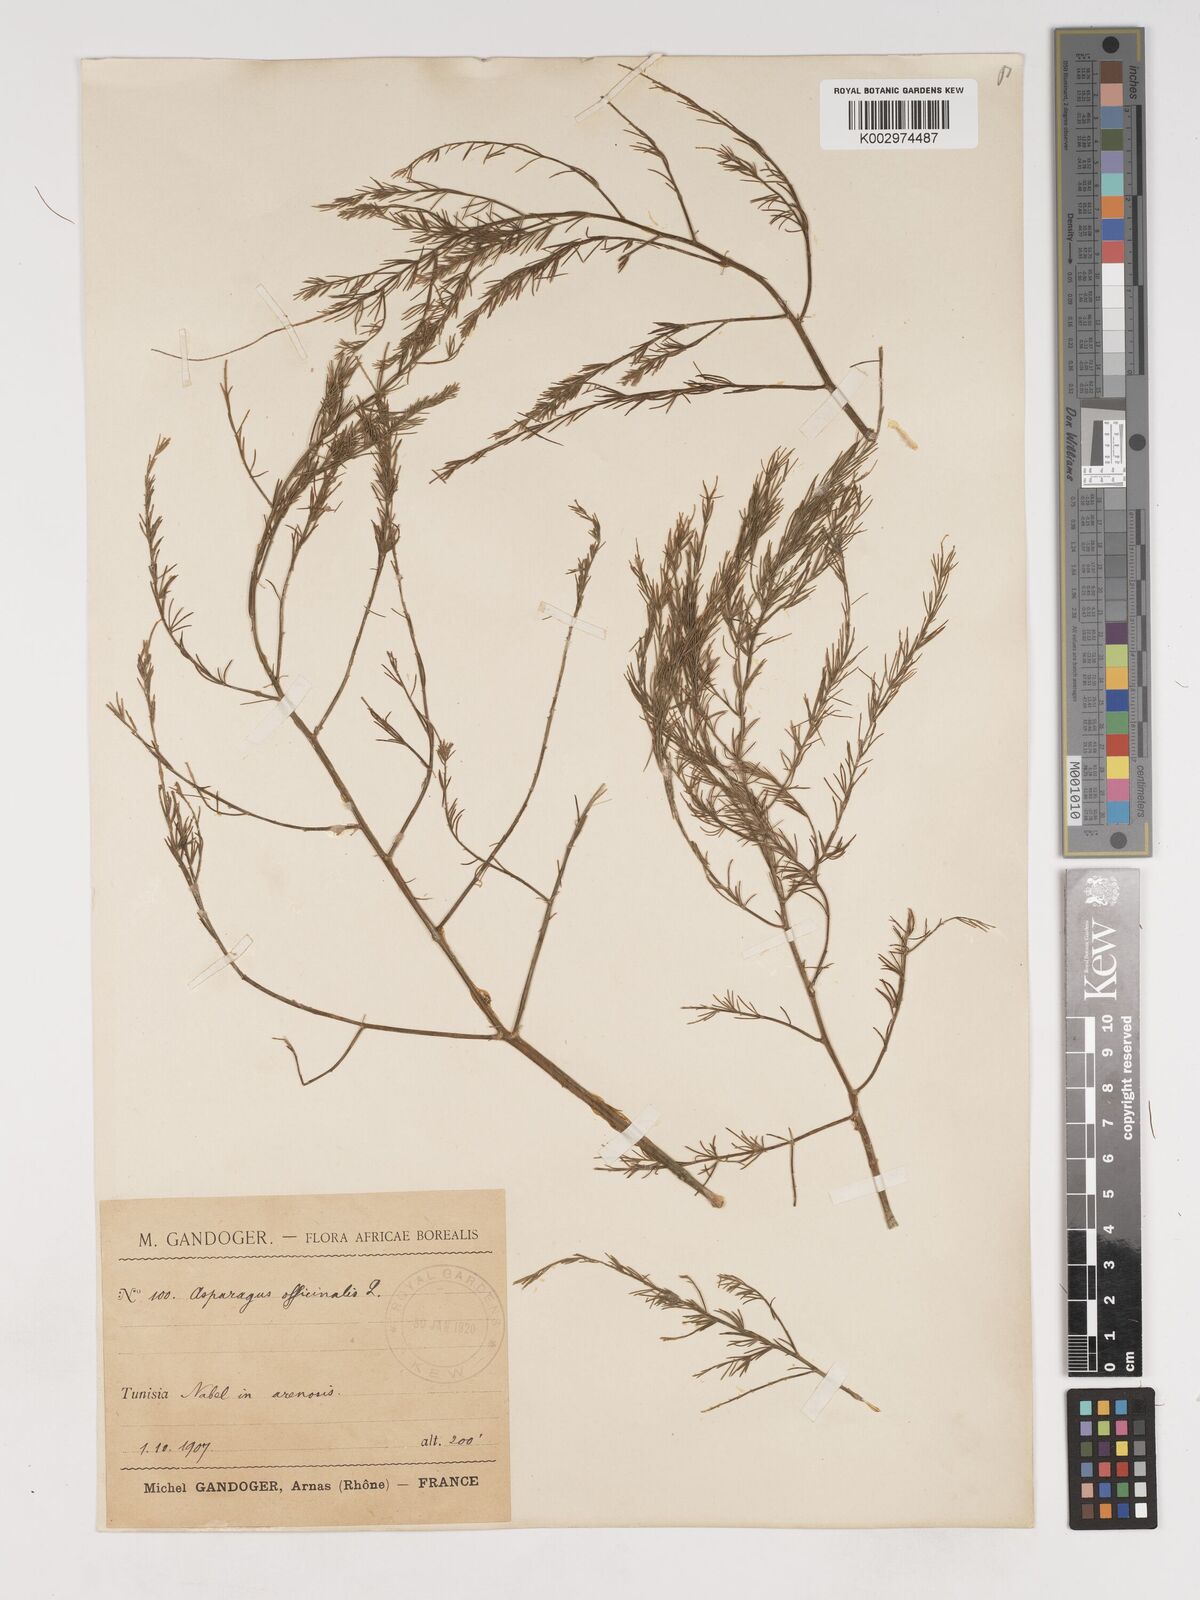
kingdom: Plantae
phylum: Tracheophyta
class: Liliopsida
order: Asparagales
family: Asparagaceae
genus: Asparagus
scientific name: Asparagus officinalis
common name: Garden asparagus
